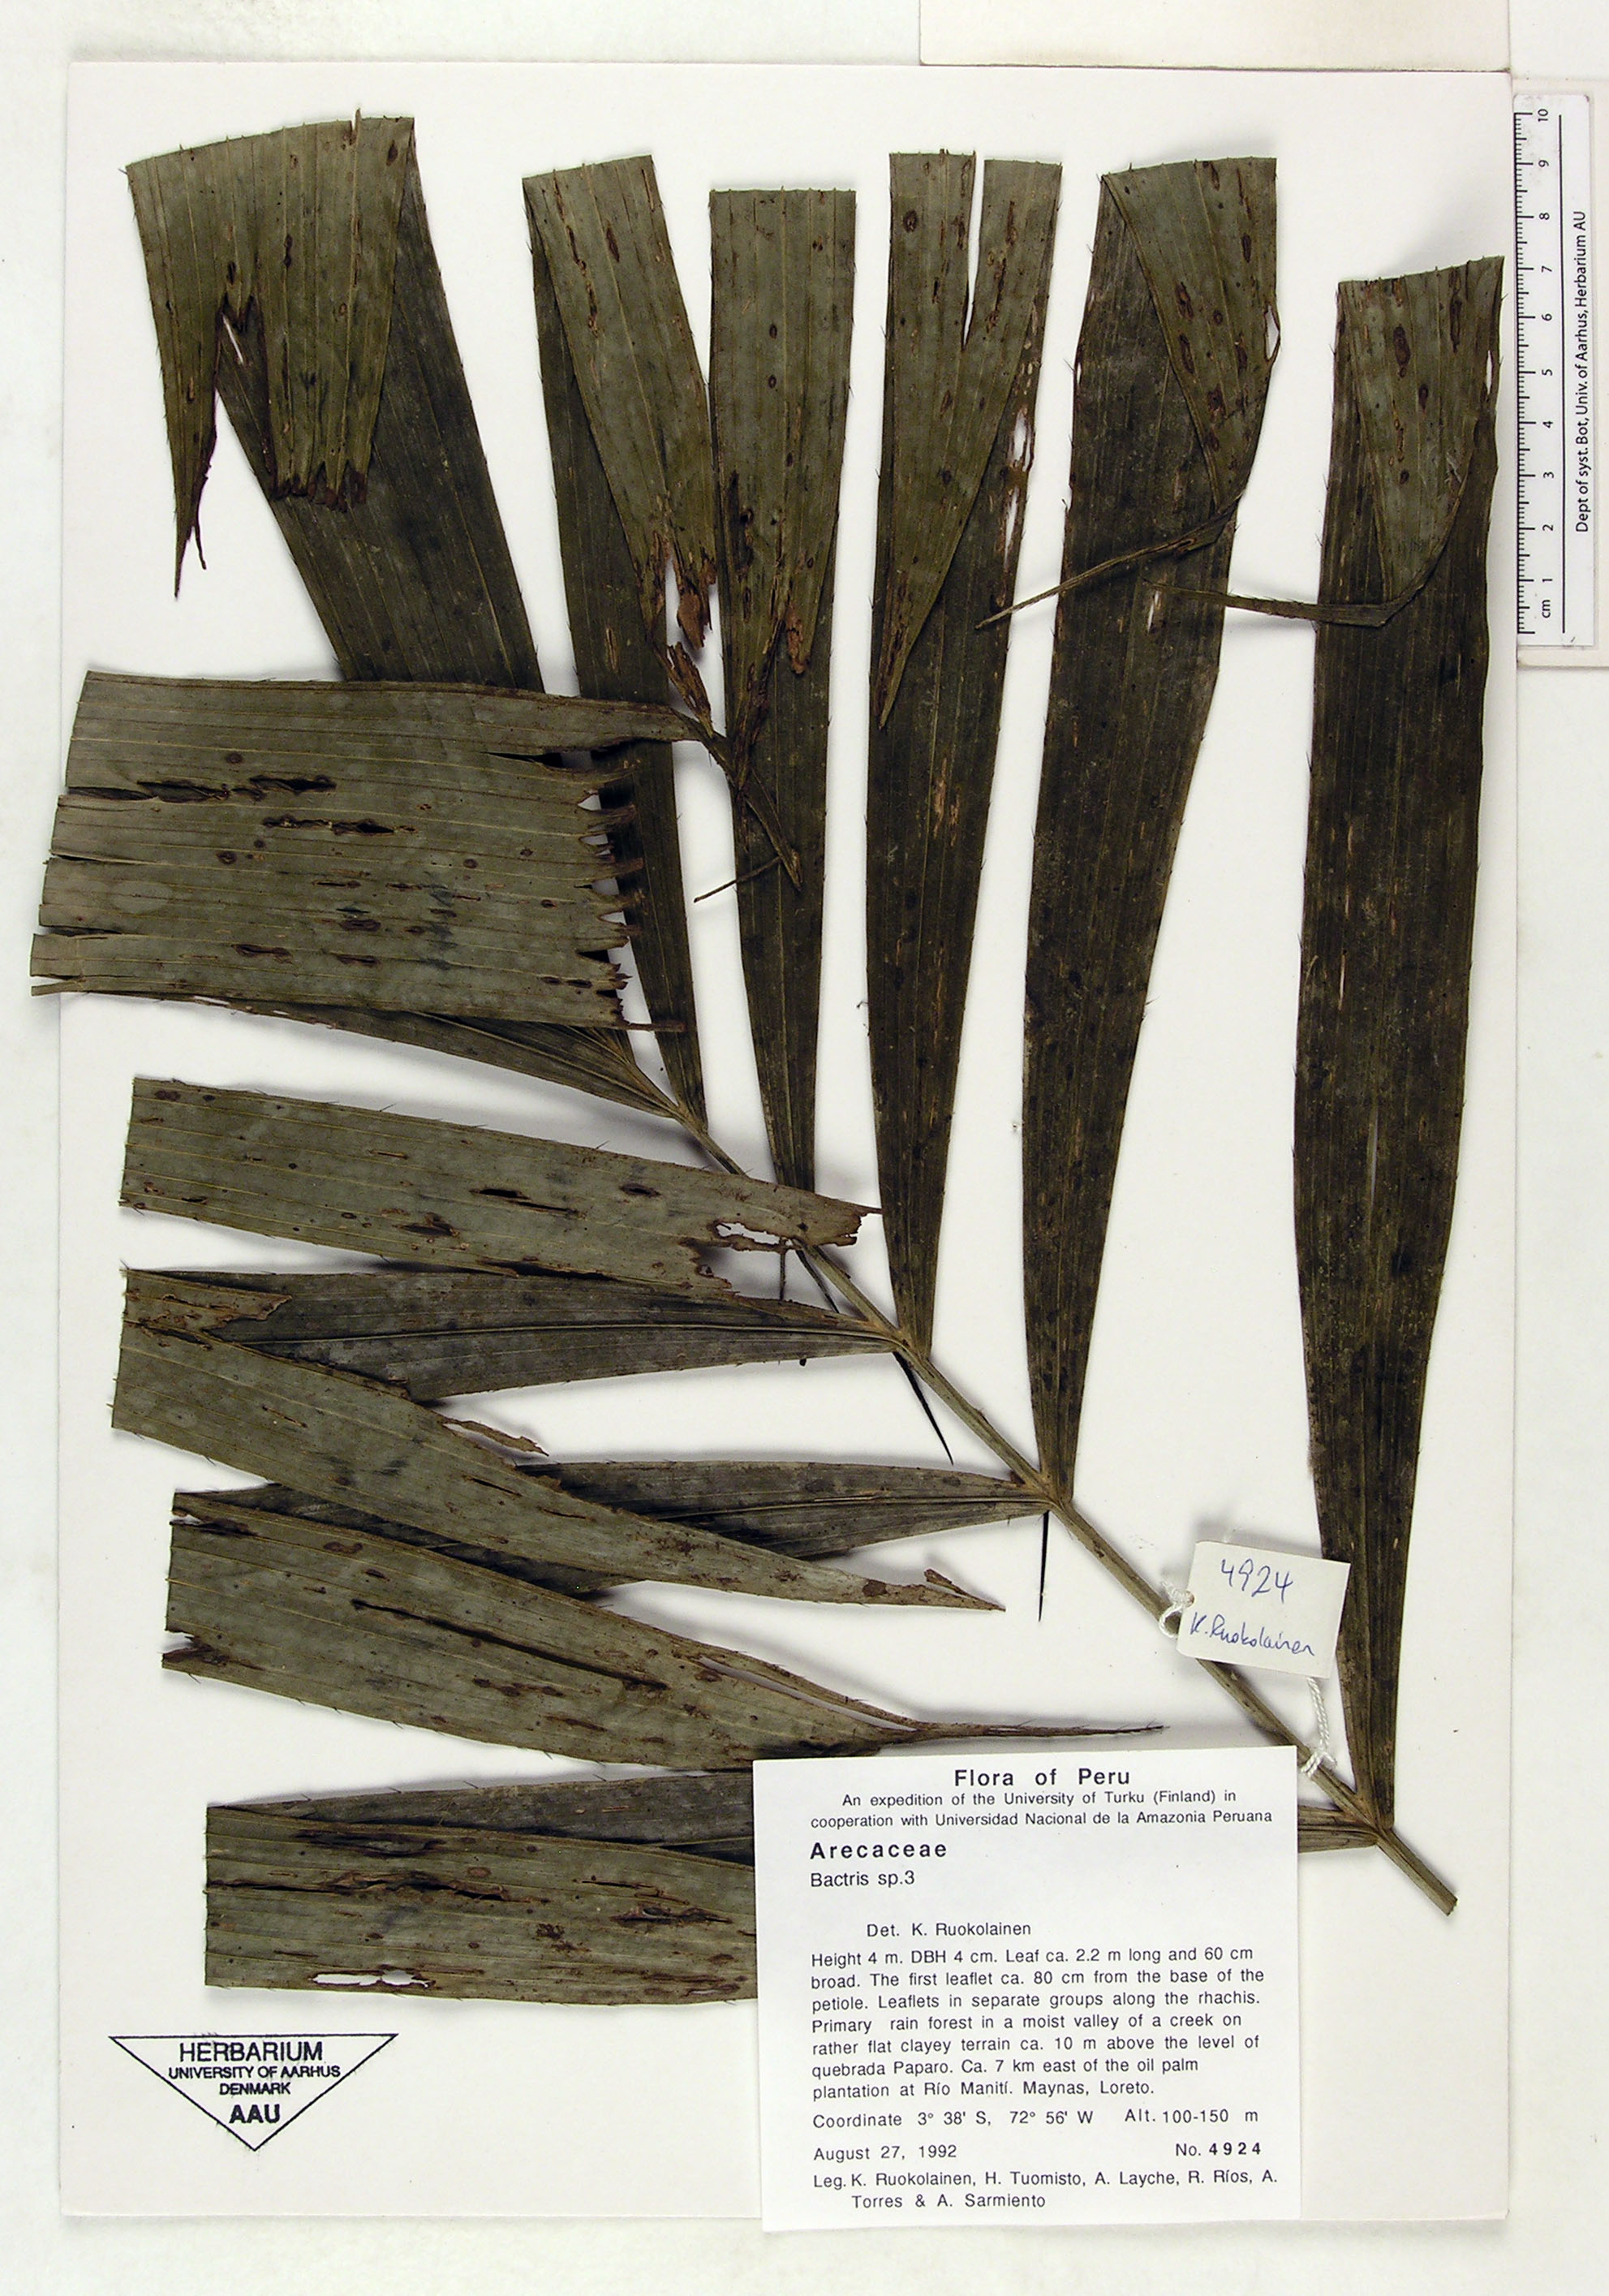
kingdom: Plantae
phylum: Tracheophyta
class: Liliopsida
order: Arecales
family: Arecaceae
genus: Bactris
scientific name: Bactris
